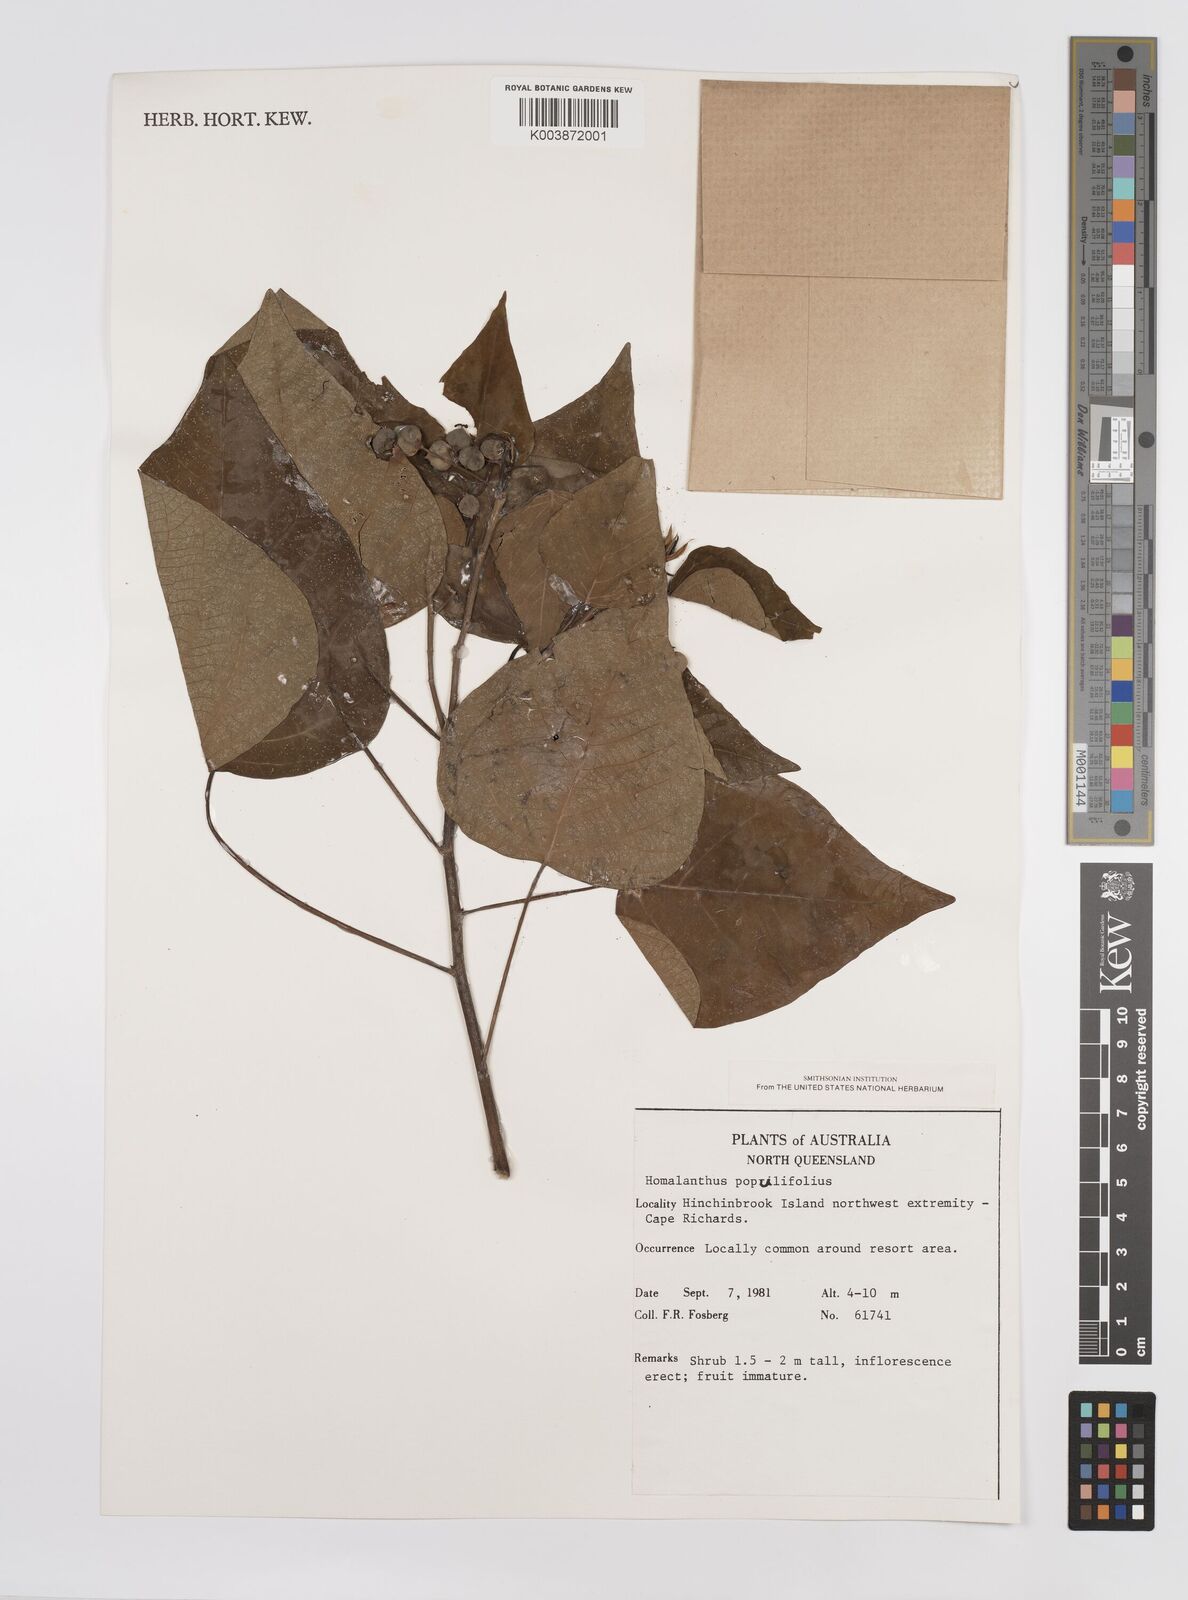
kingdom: Plantae
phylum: Tracheophyta
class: Magnoliopsida
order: Malpighiales
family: Euphorbiaceae
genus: Homalanthus
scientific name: Homalanthus populifolius
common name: Queensland poplar
